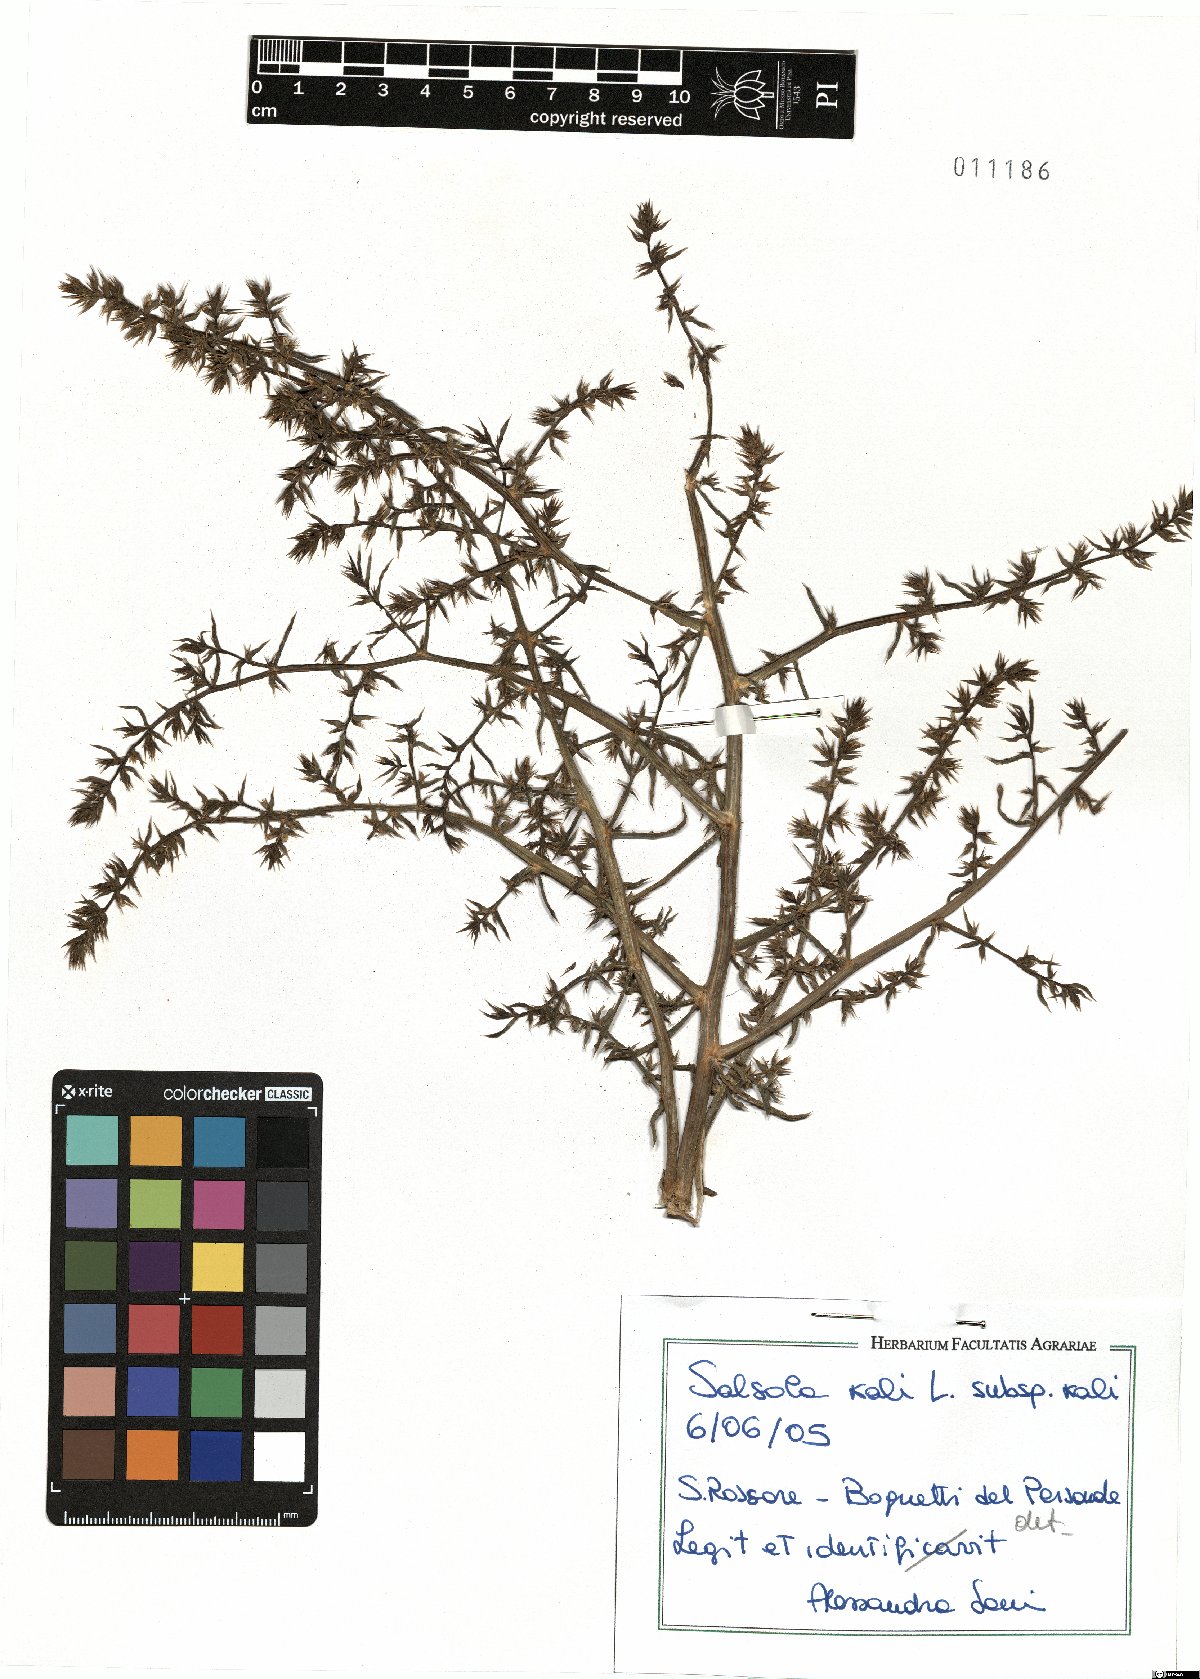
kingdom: Plantae
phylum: Tracheophyta
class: Magnoliopsida
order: Caryophyllales
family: Amaranthaceae
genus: Salsola
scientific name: Salsola kali
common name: Saltwort
